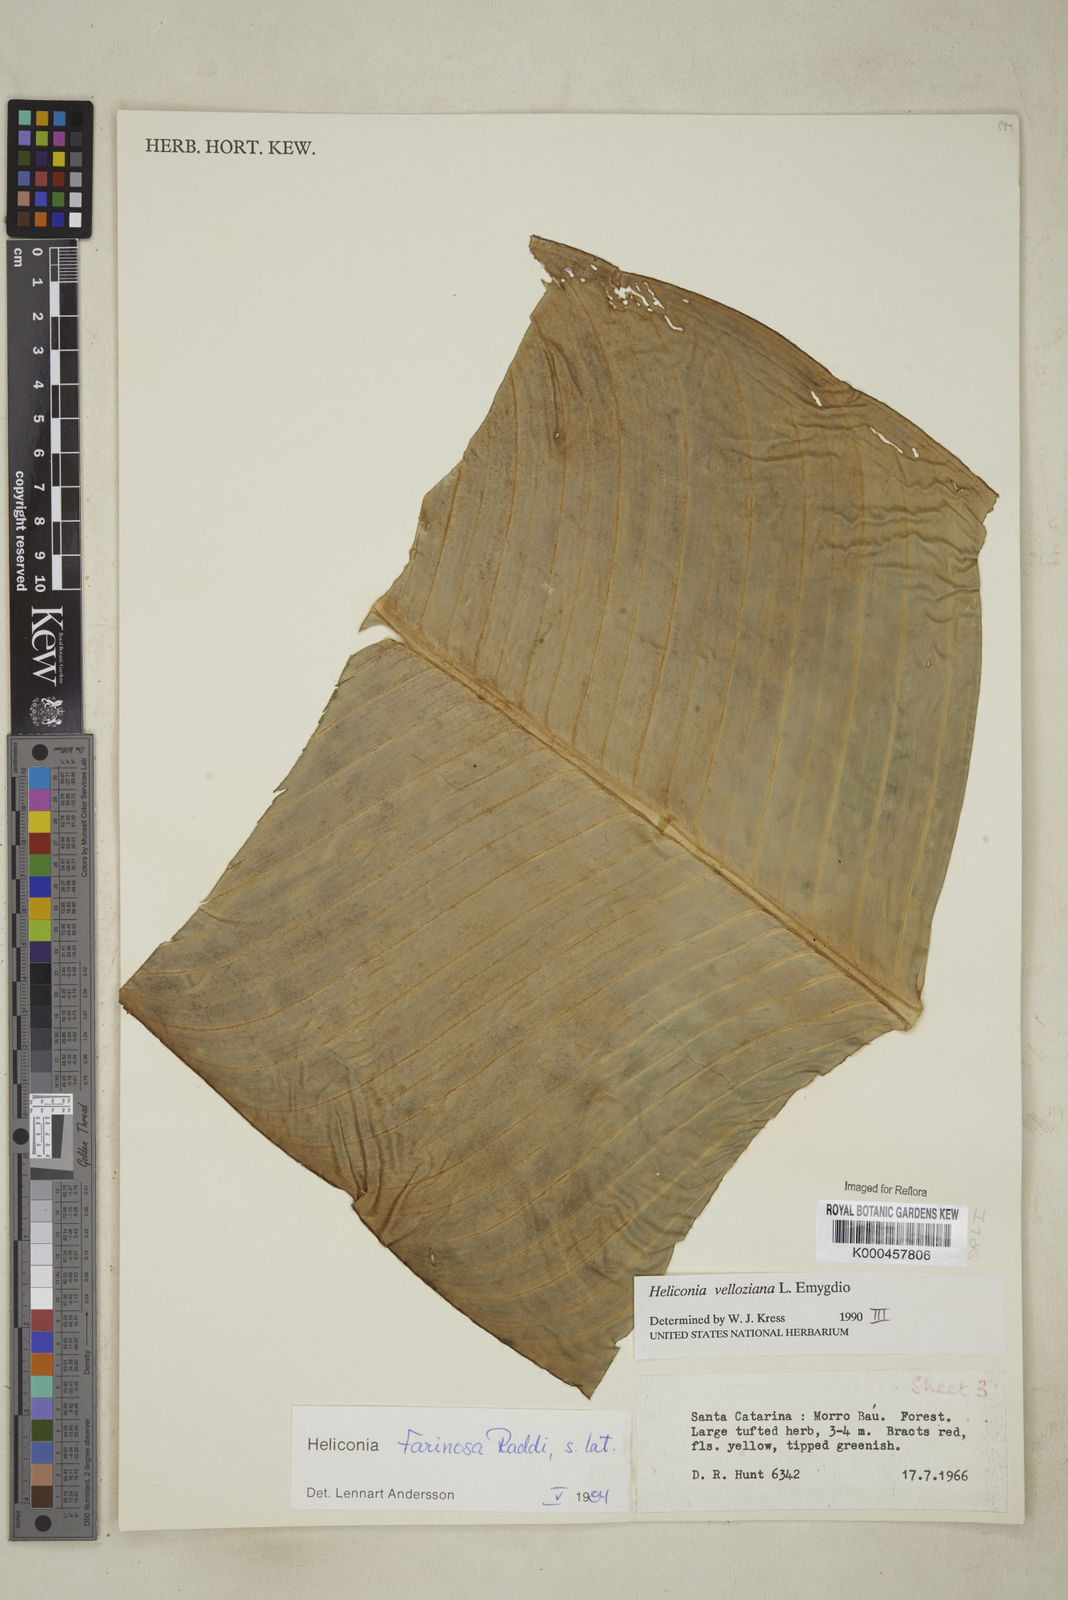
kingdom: Plantae
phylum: Tracheophyta
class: Liliopsida
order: Zingiberales
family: Heliconiaceae
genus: Heliconia
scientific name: Heliconia farinosa
